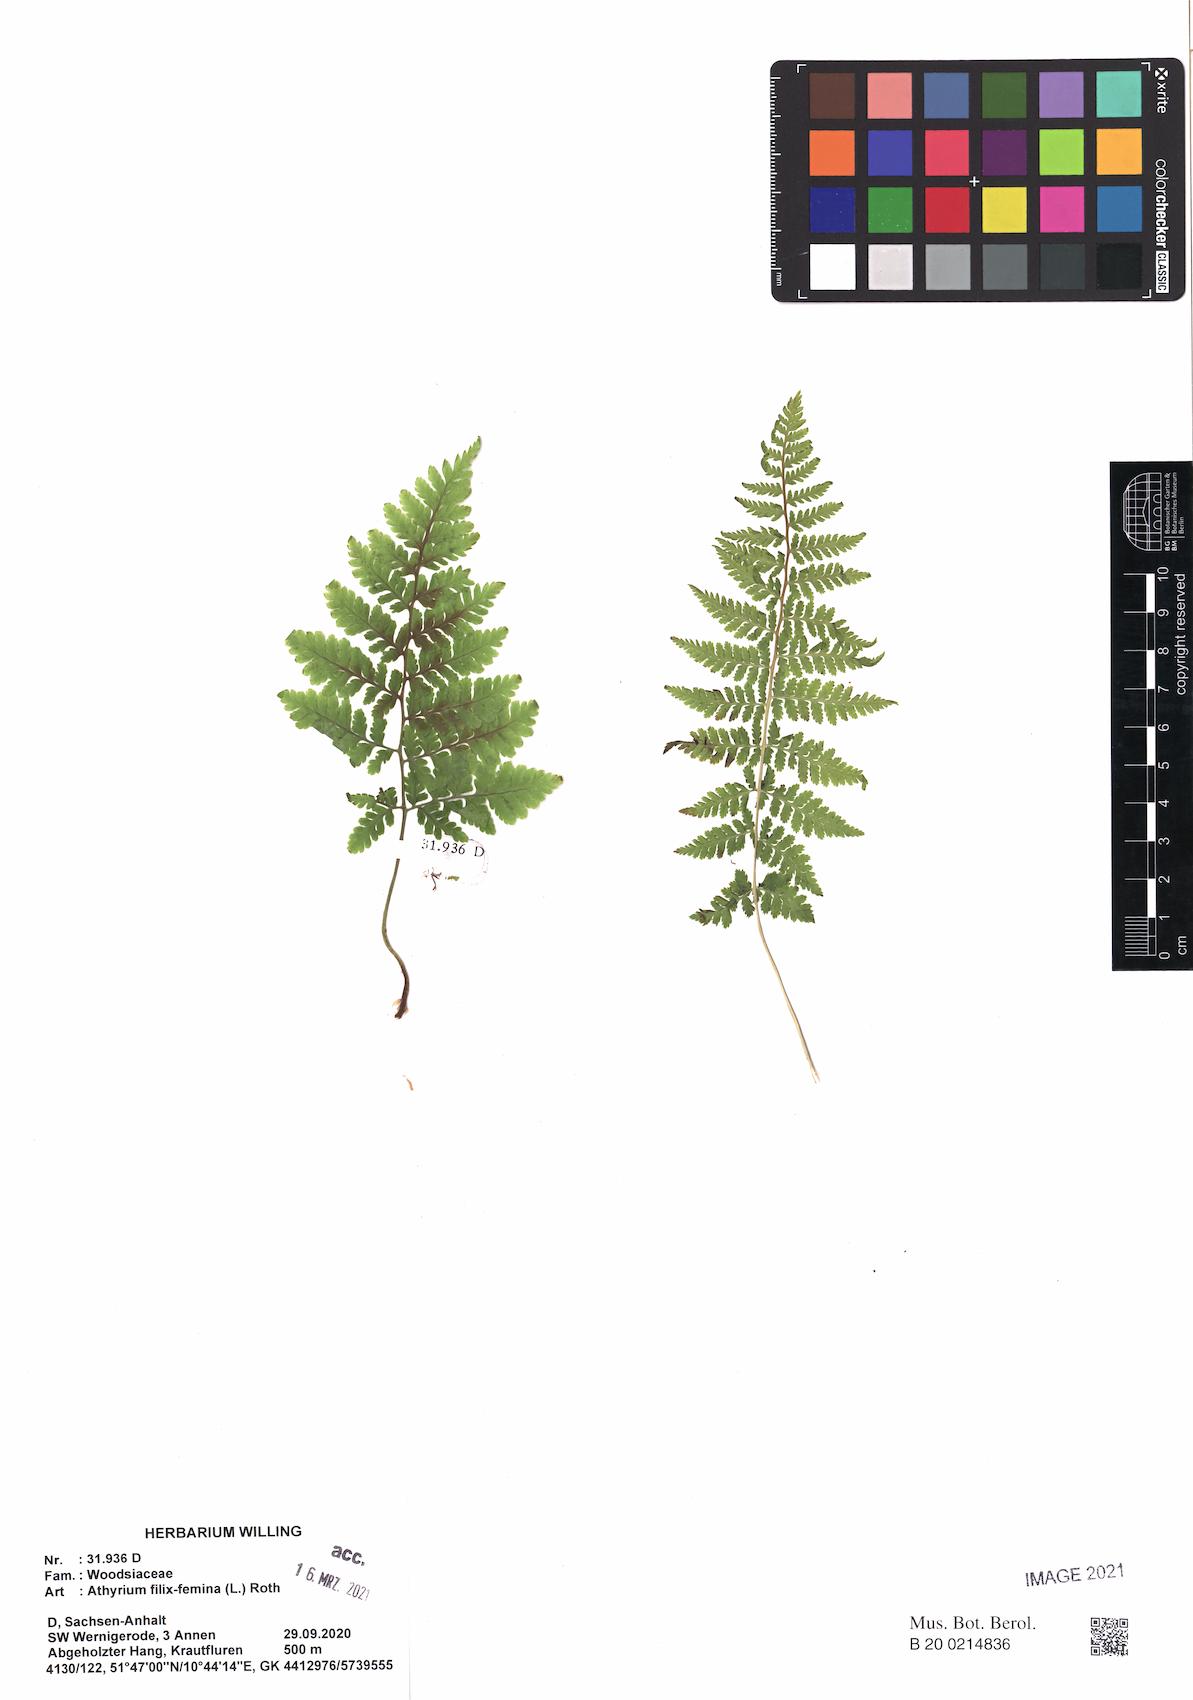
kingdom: Plantae
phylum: Tracheophyta
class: Polypodiopsida
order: Polypodiales
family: Athyriaceae
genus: Athyrium
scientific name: Athyrium filix-femina
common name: Lady fern
